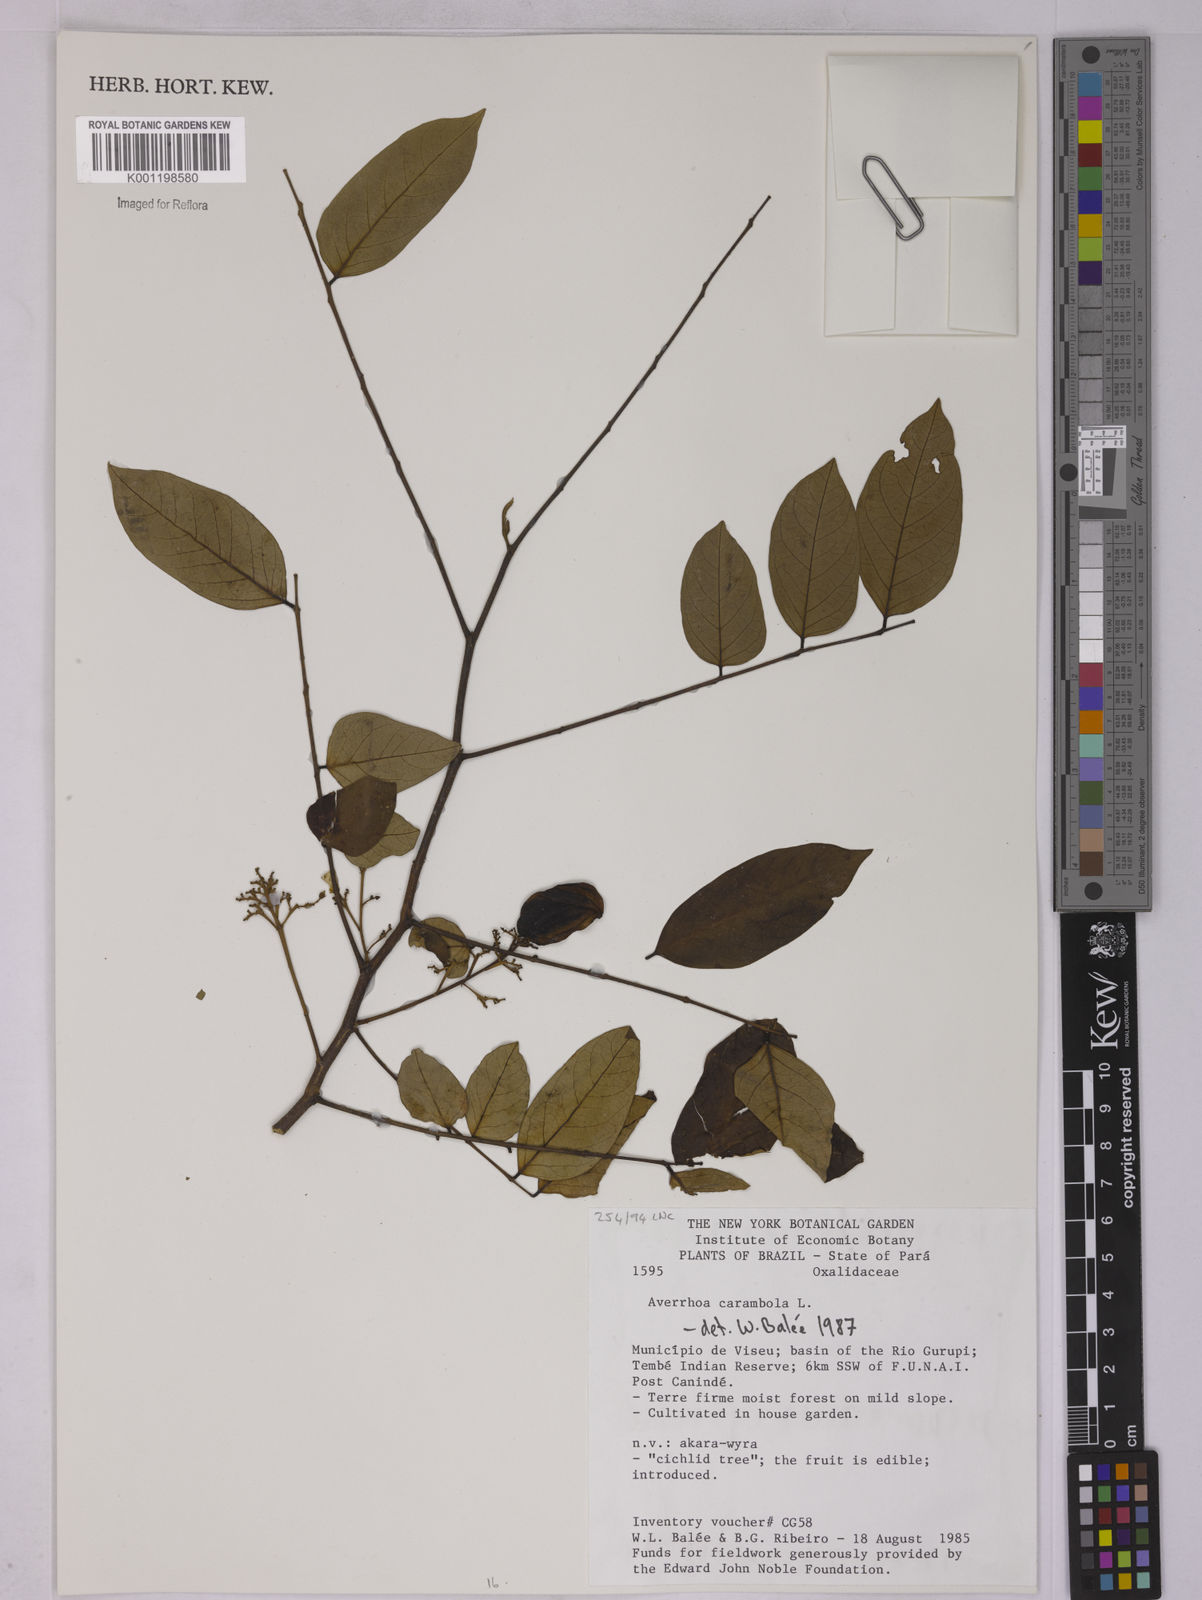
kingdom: Plantae
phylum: Tracheophyta
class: Magnoliopsida
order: Oxalidales
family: Oxalidaceae
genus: Averrhoa
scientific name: Averrhoa carambola
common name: Blimbing
